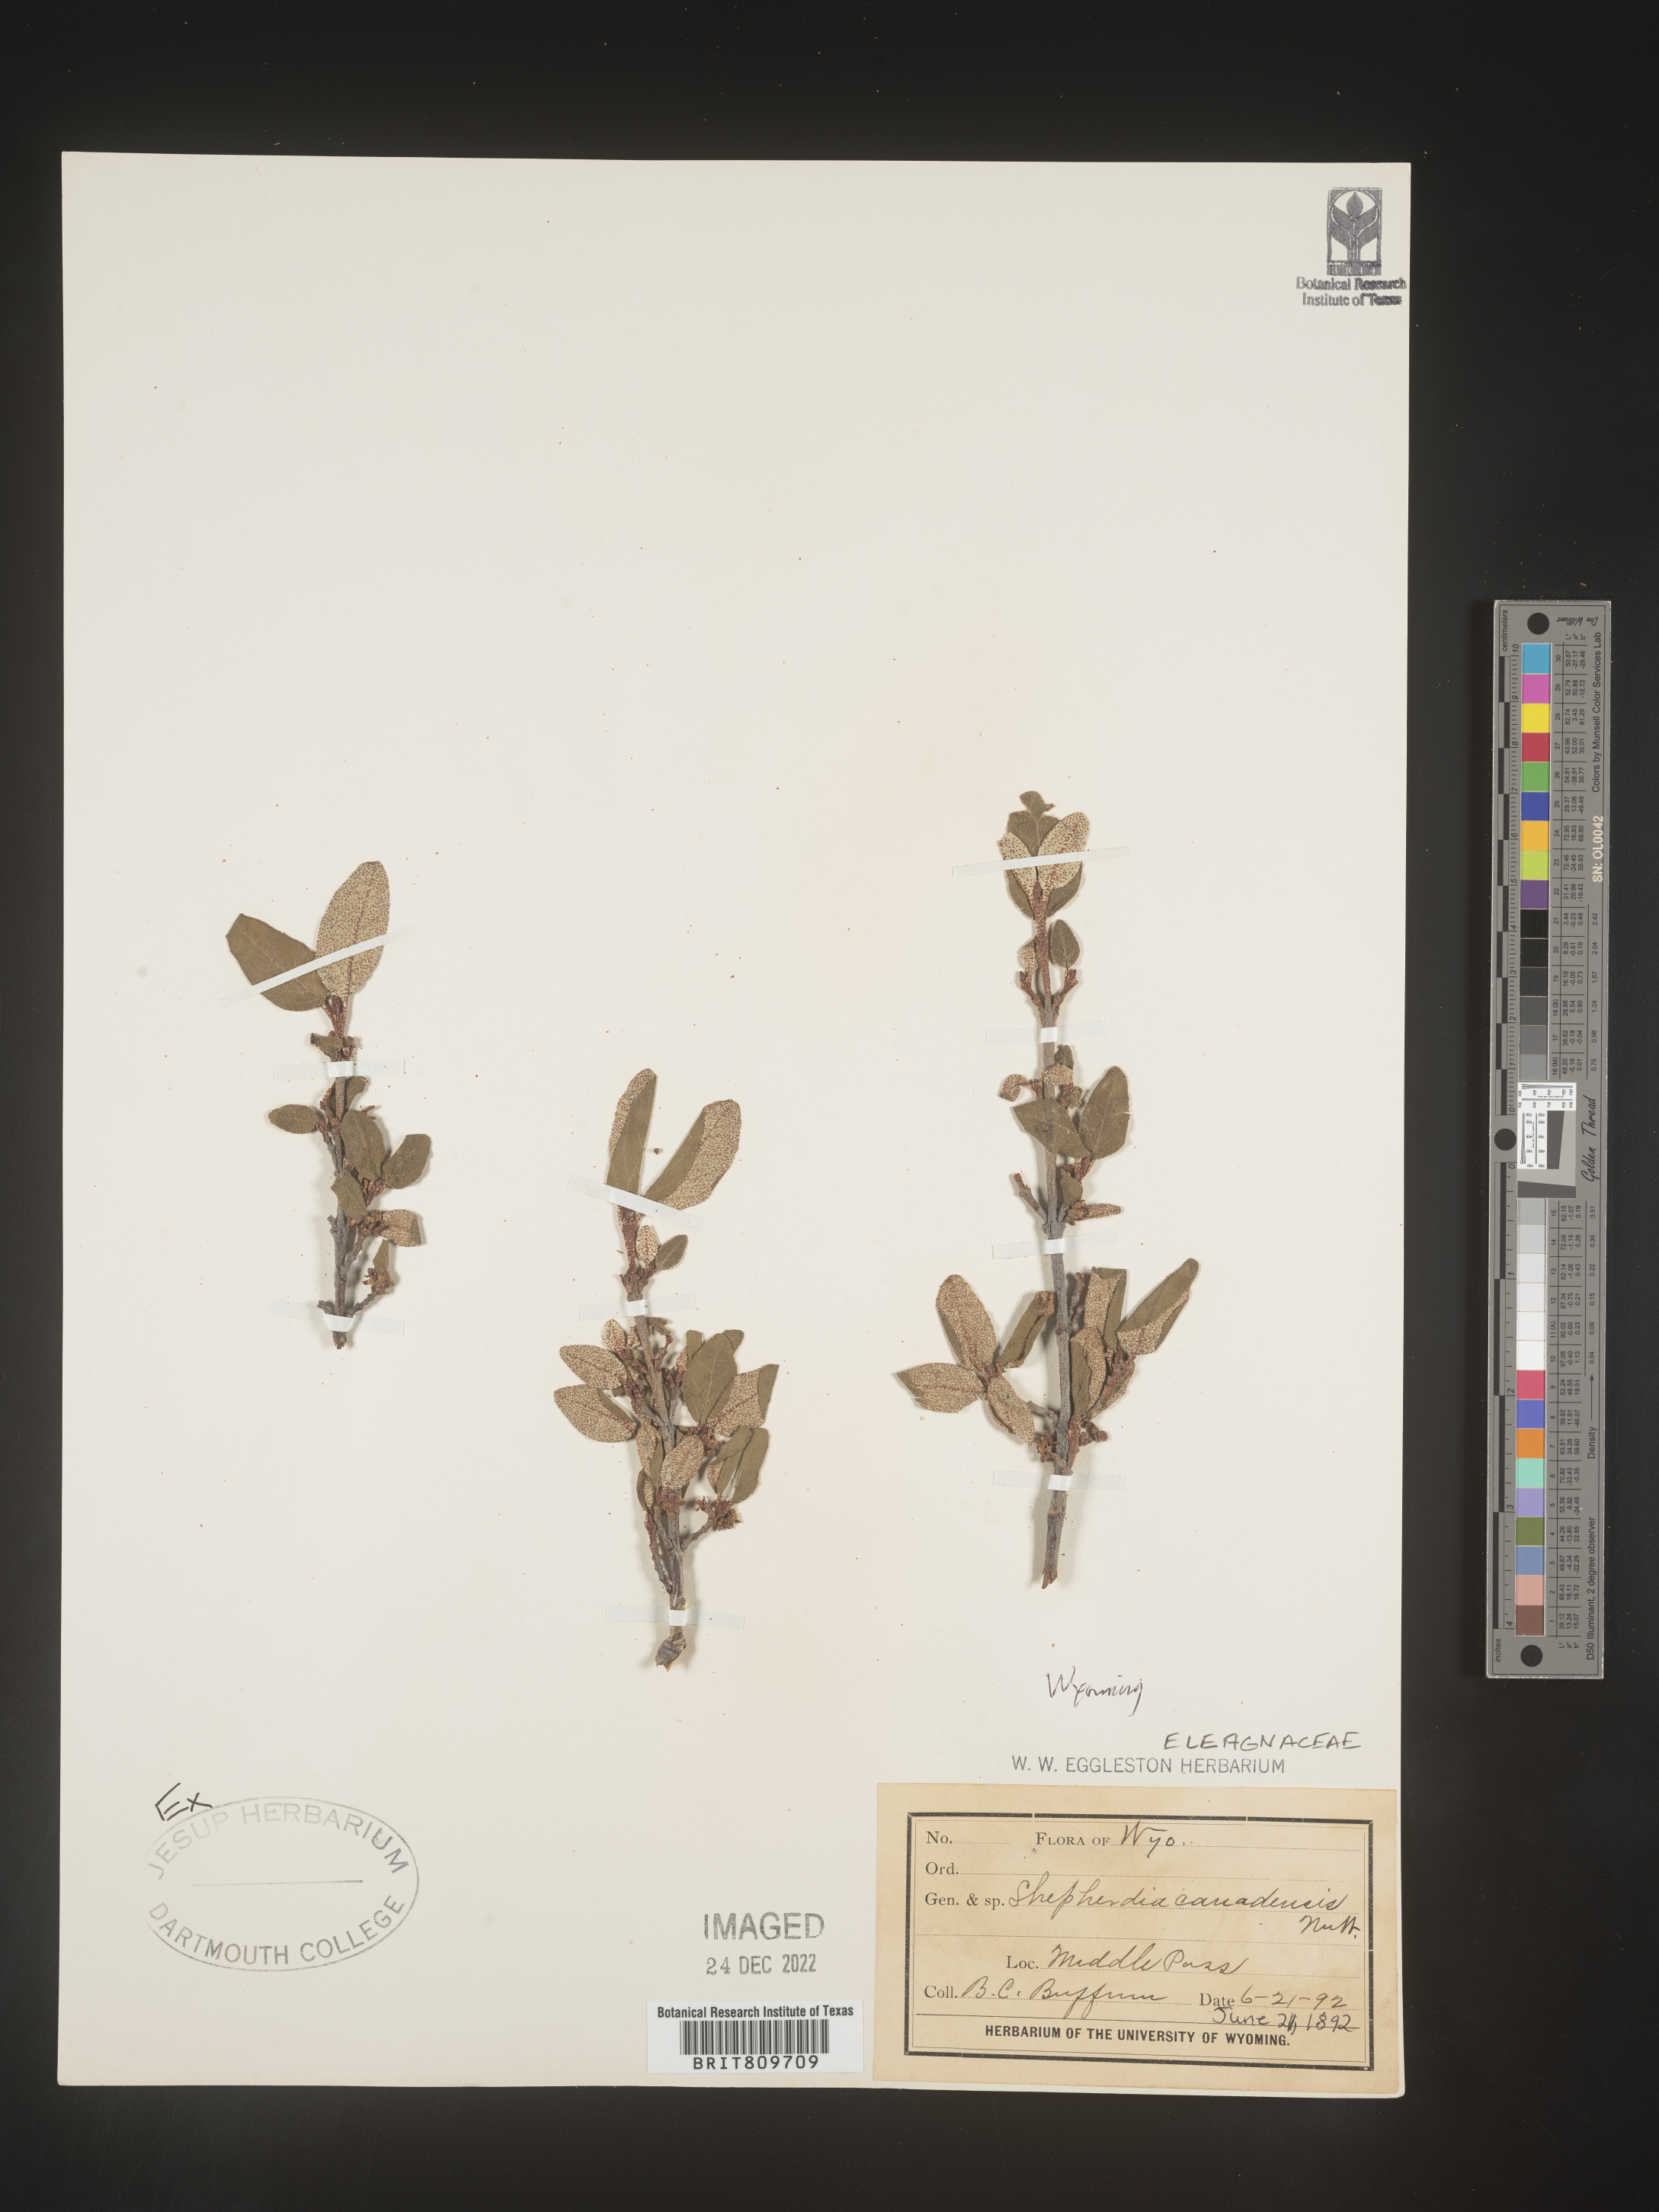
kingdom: Plantae
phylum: Tracheophyta
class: Magnoliopsida
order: Rosales
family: Elaeagnaceae
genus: Shepherdia
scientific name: Shepherdia canadensis
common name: Soapberry
